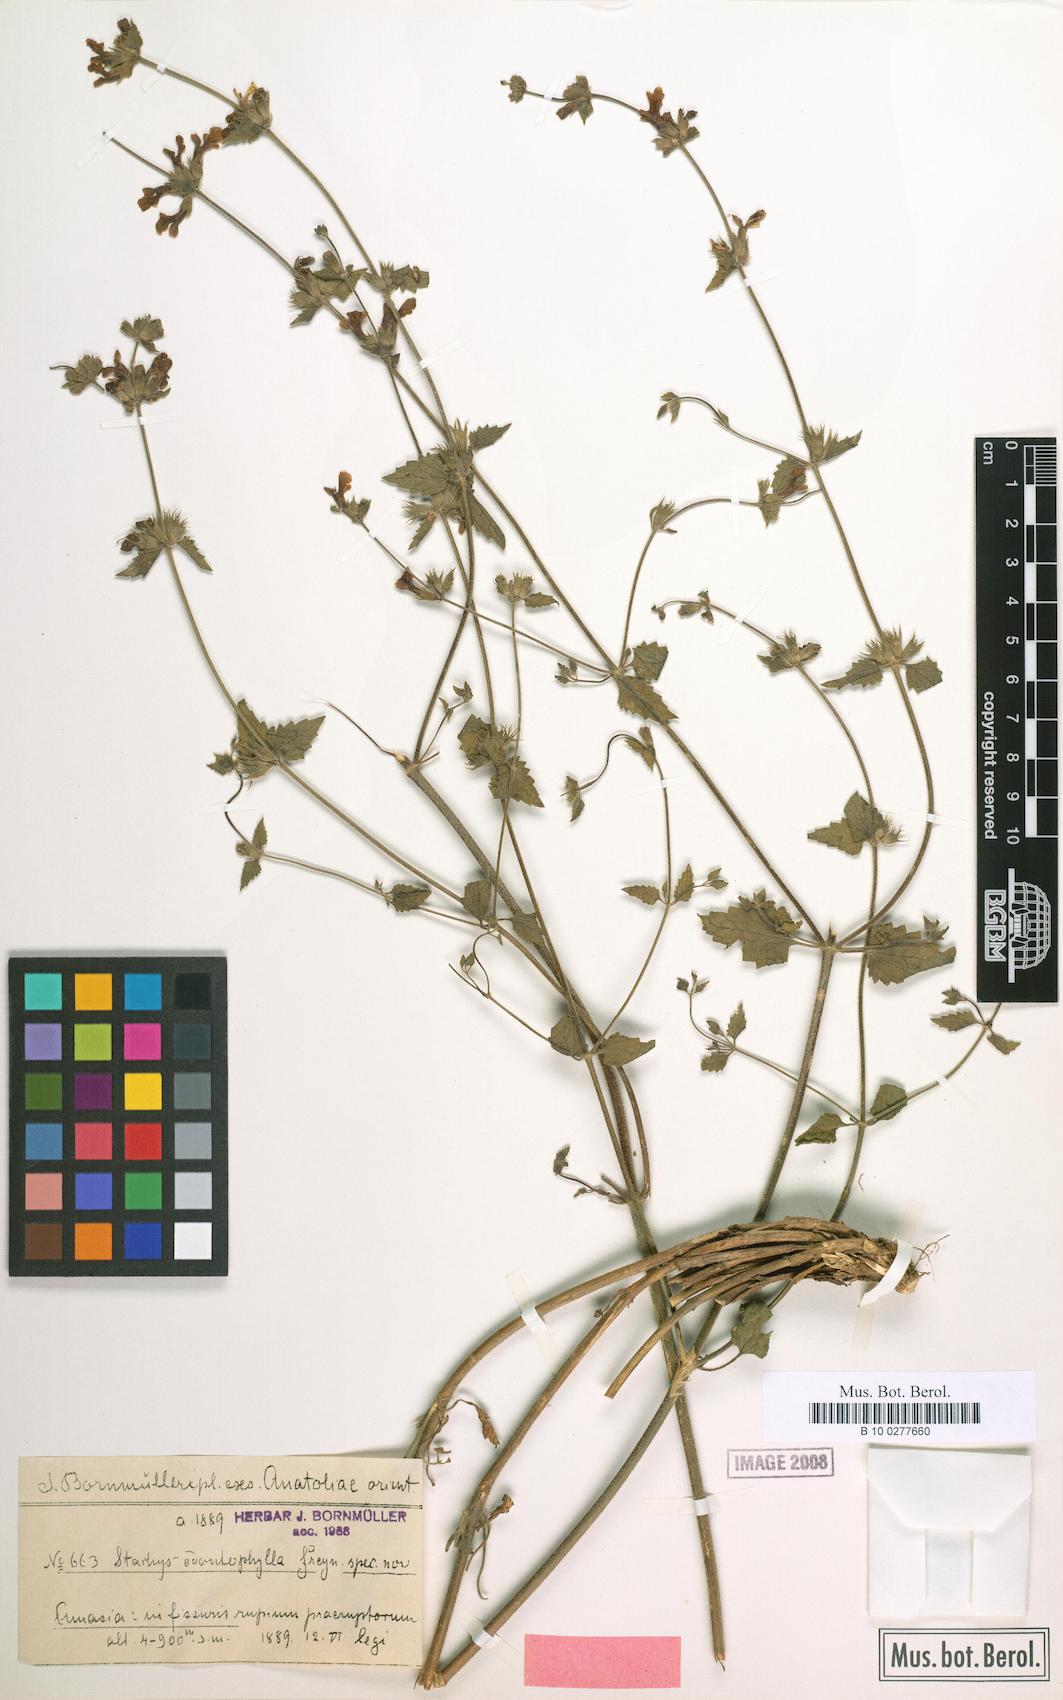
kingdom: Plantae
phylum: Tracheophyta
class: Magnoliopsida
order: Lamiales
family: Lamiaceae
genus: Stachys
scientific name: Stachys viscosa
